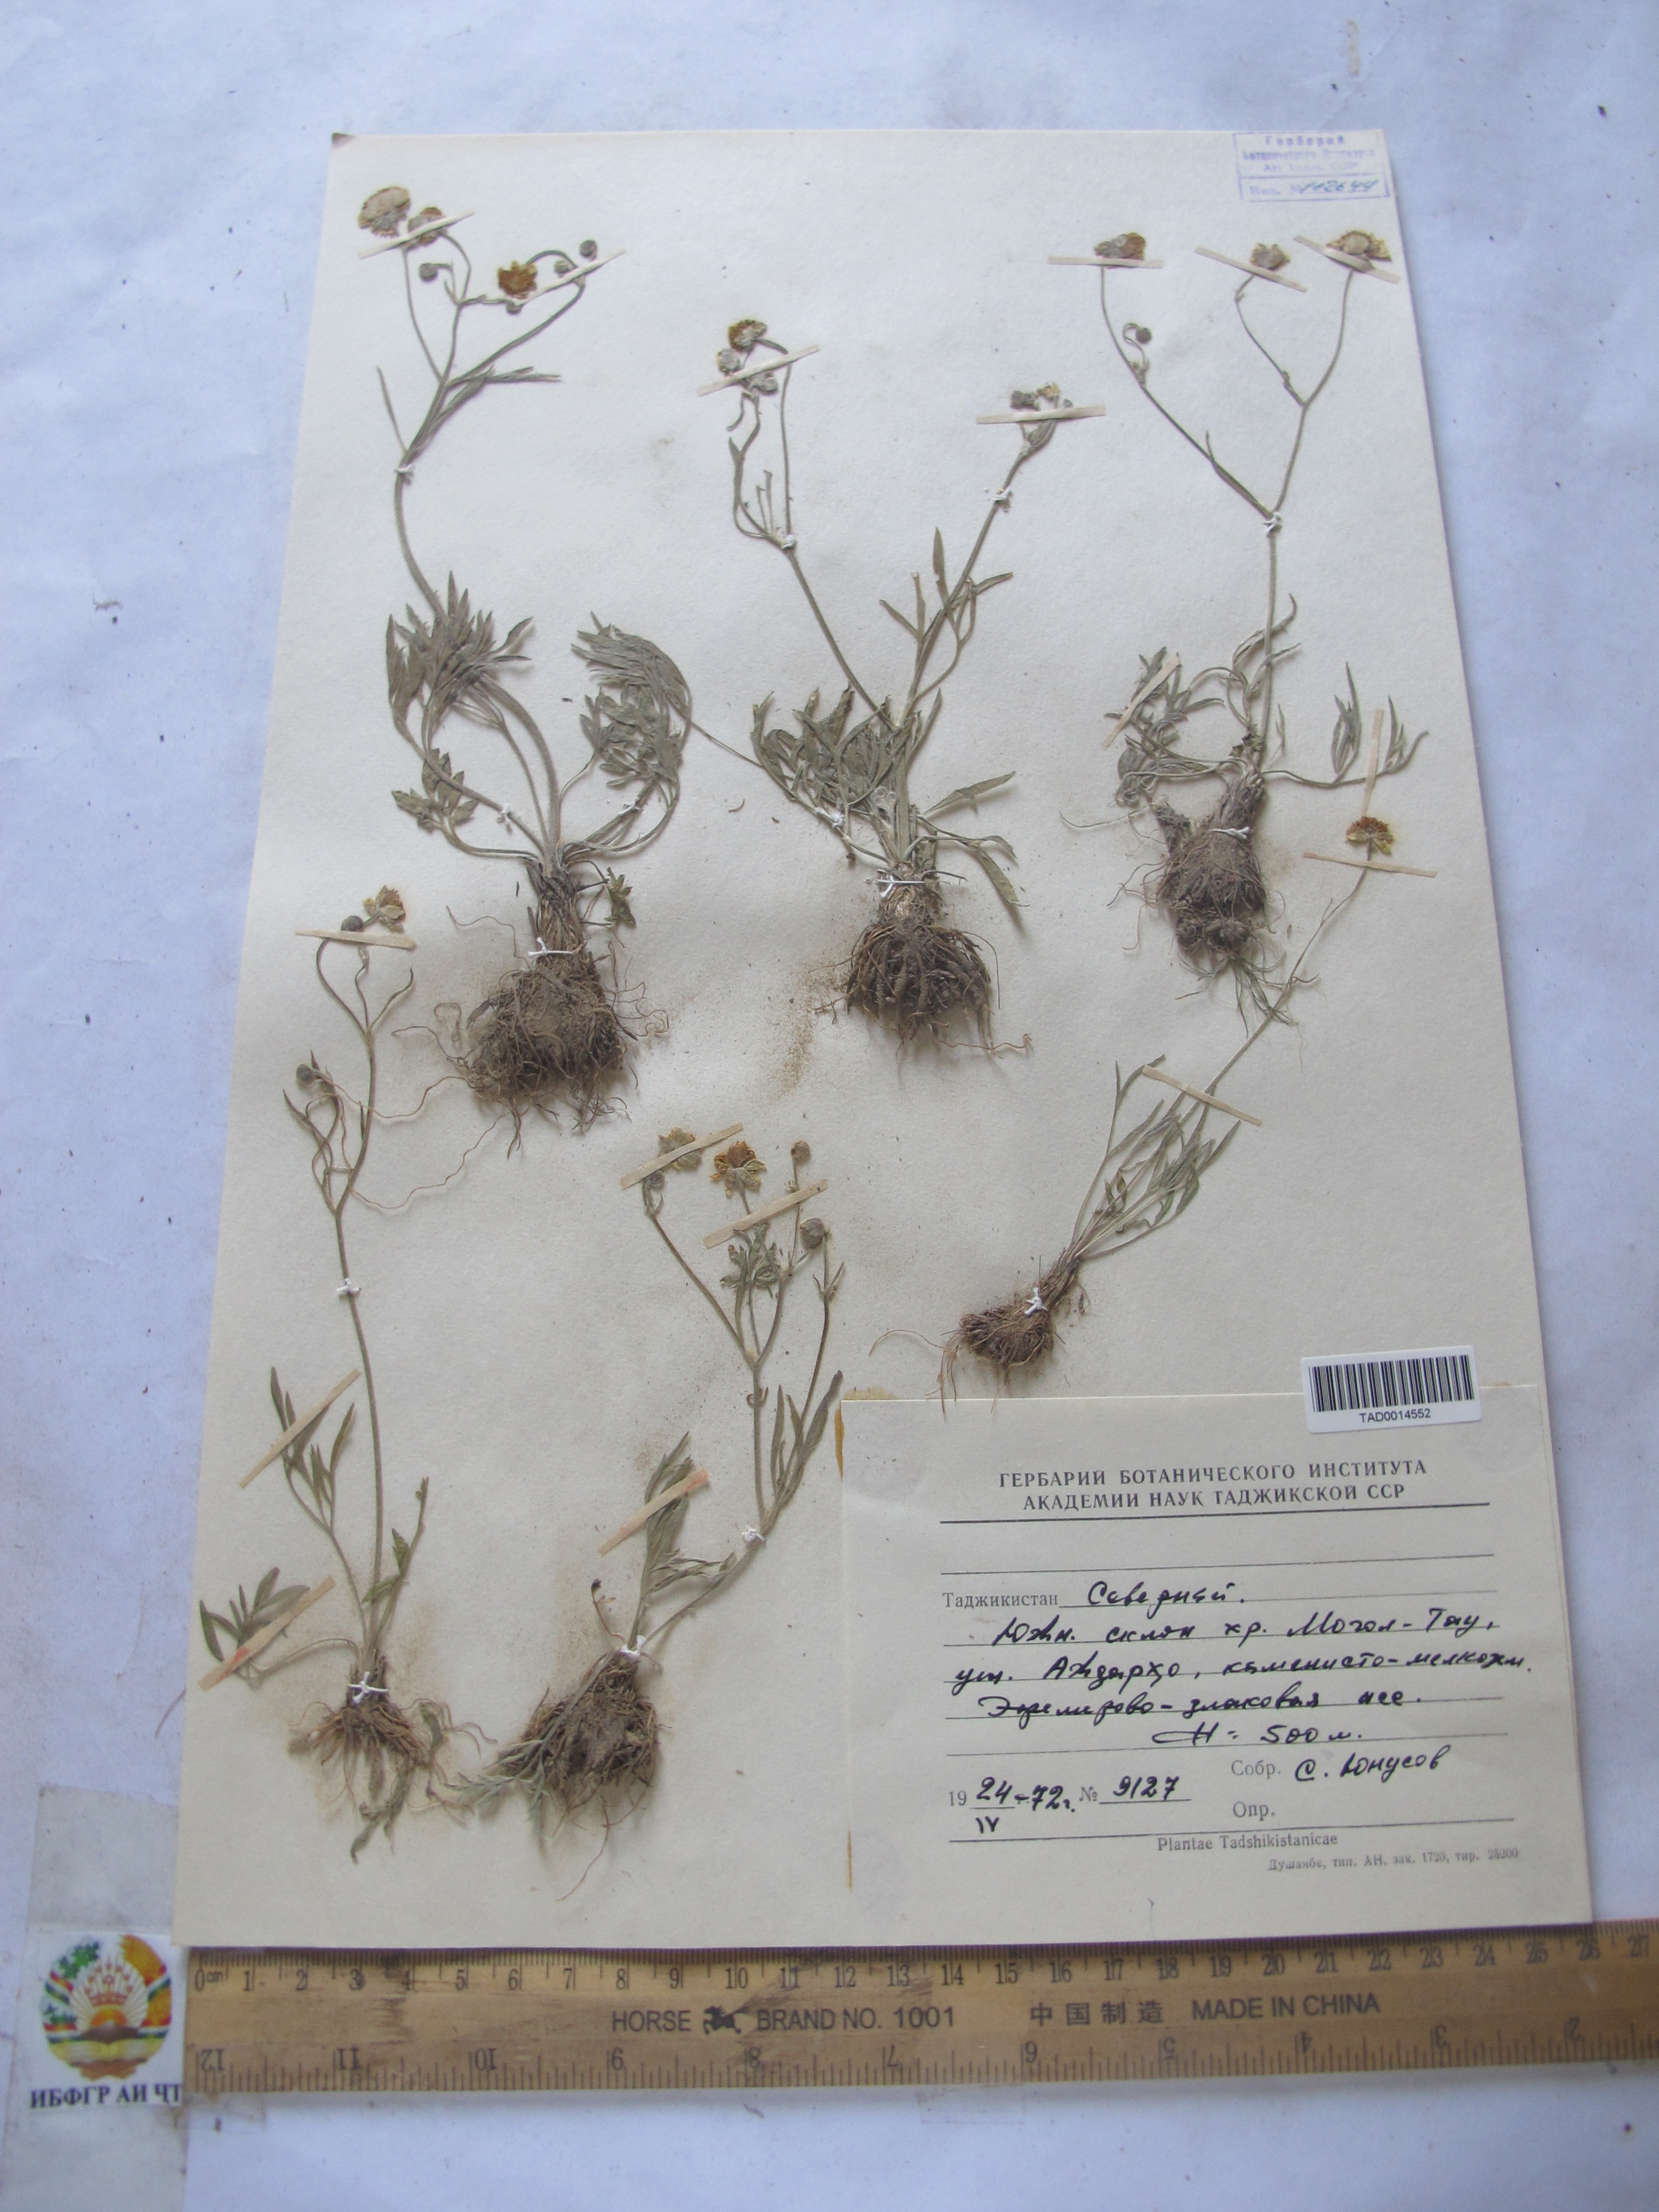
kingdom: Plantae
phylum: Tracheophyta
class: Magnoliopsida
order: Ranunculales
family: Ranunculaceae
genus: Ranunculus
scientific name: Ranunculus linearilobus
